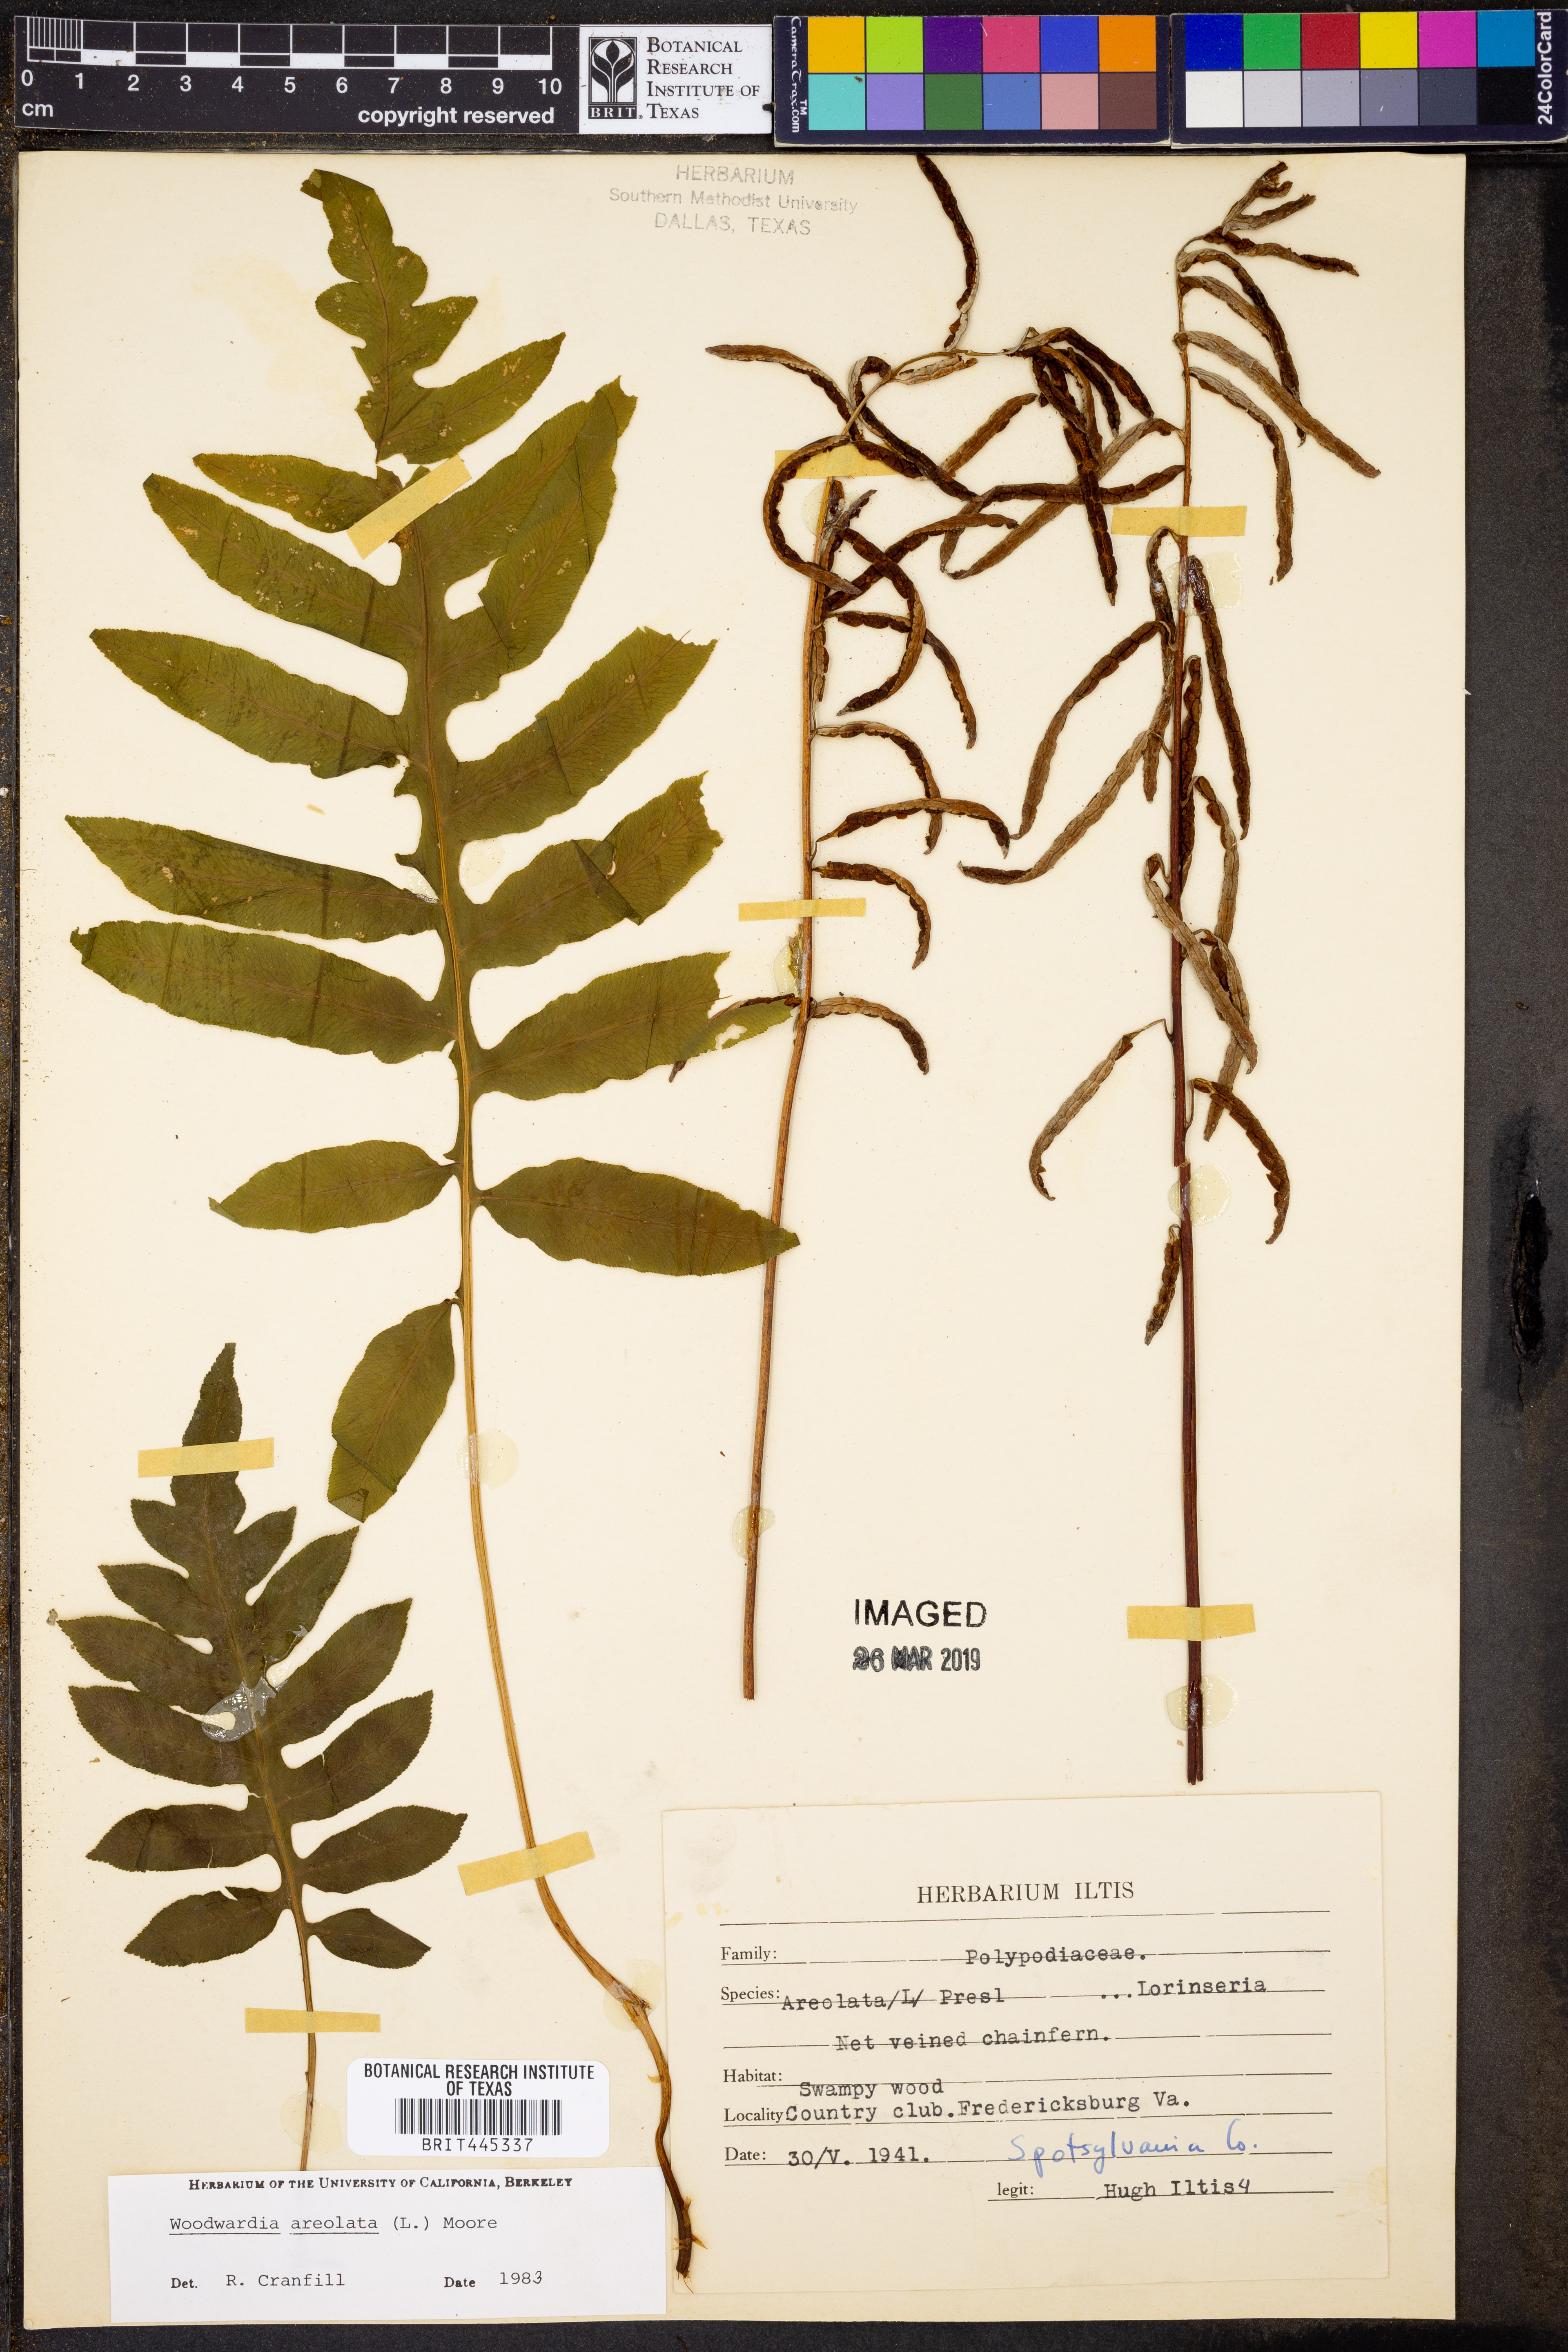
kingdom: Plantae
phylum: Tracheophyta
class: Polypodiopsida
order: Polypodiales
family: Blechnaceae
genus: Lorinseria
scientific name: Lorinseria areolata
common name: Dwarf chain fern
